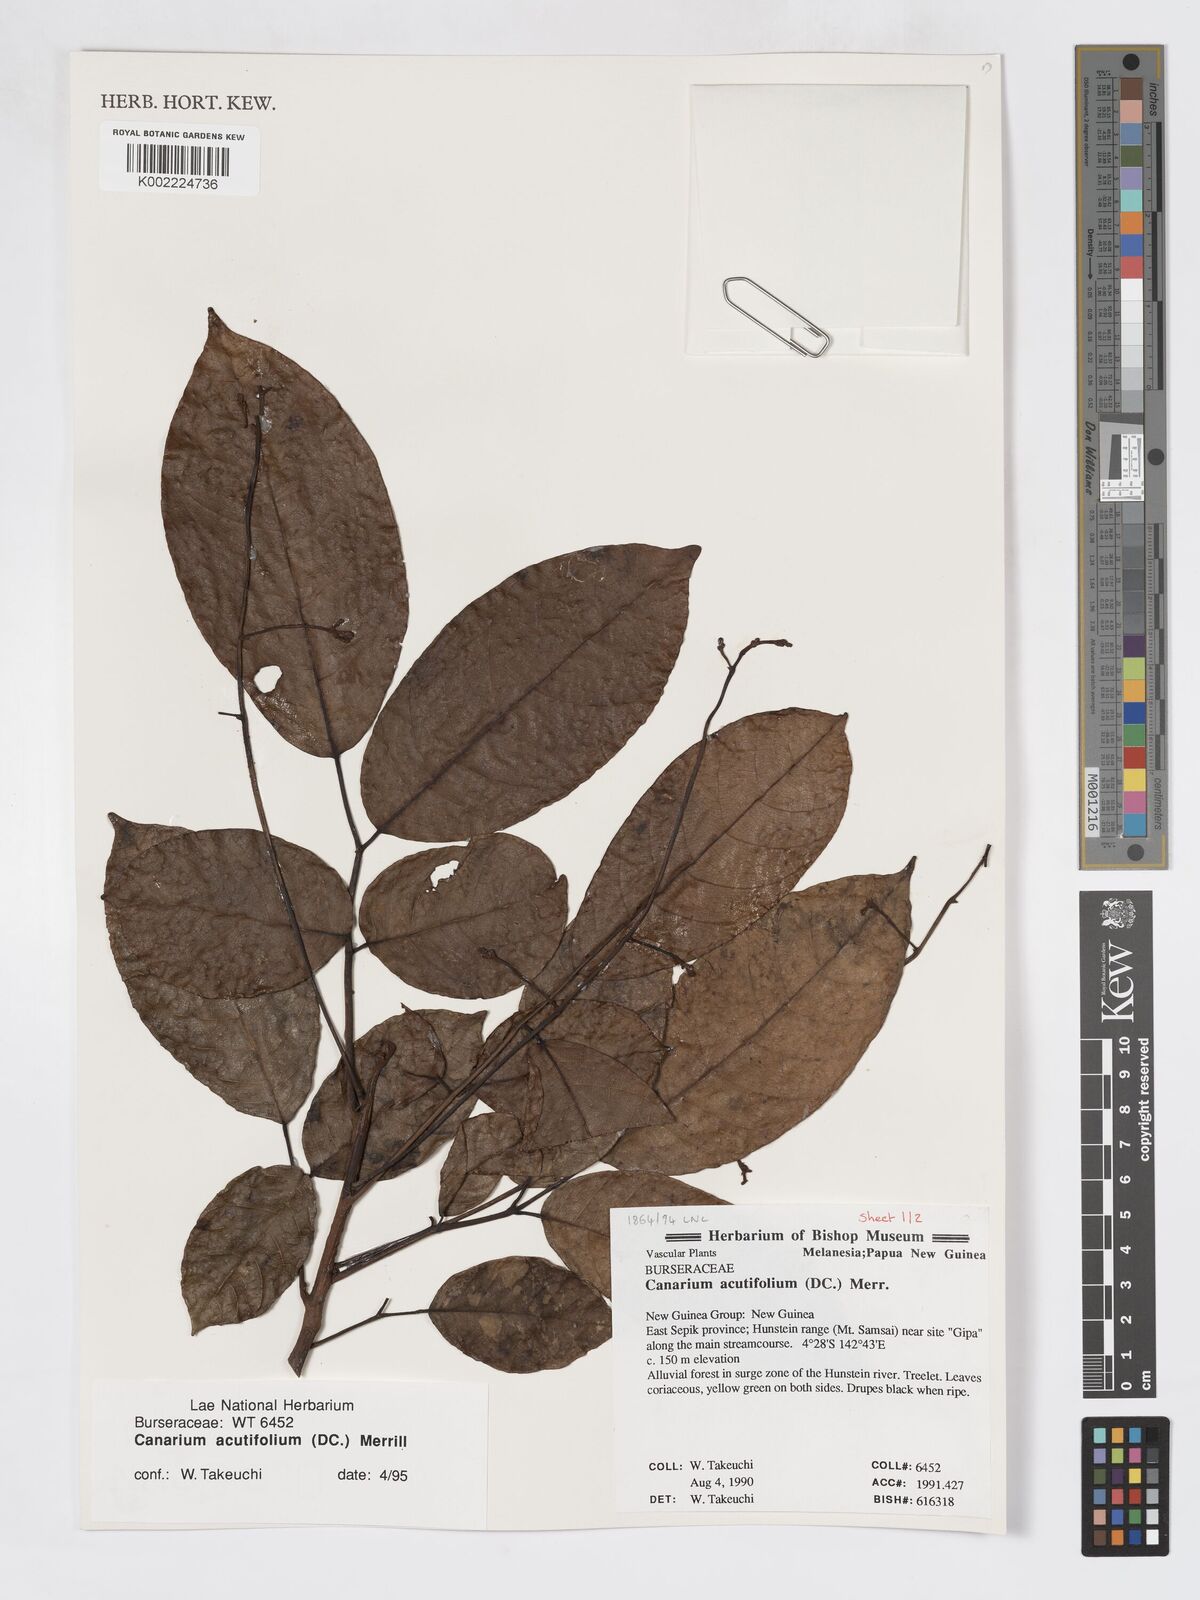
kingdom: Plantae
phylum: Tracheophyta
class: Magnoliopsida
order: Sapindales
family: Burseraceae
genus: Canarium
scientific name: Canarium acutifolium
